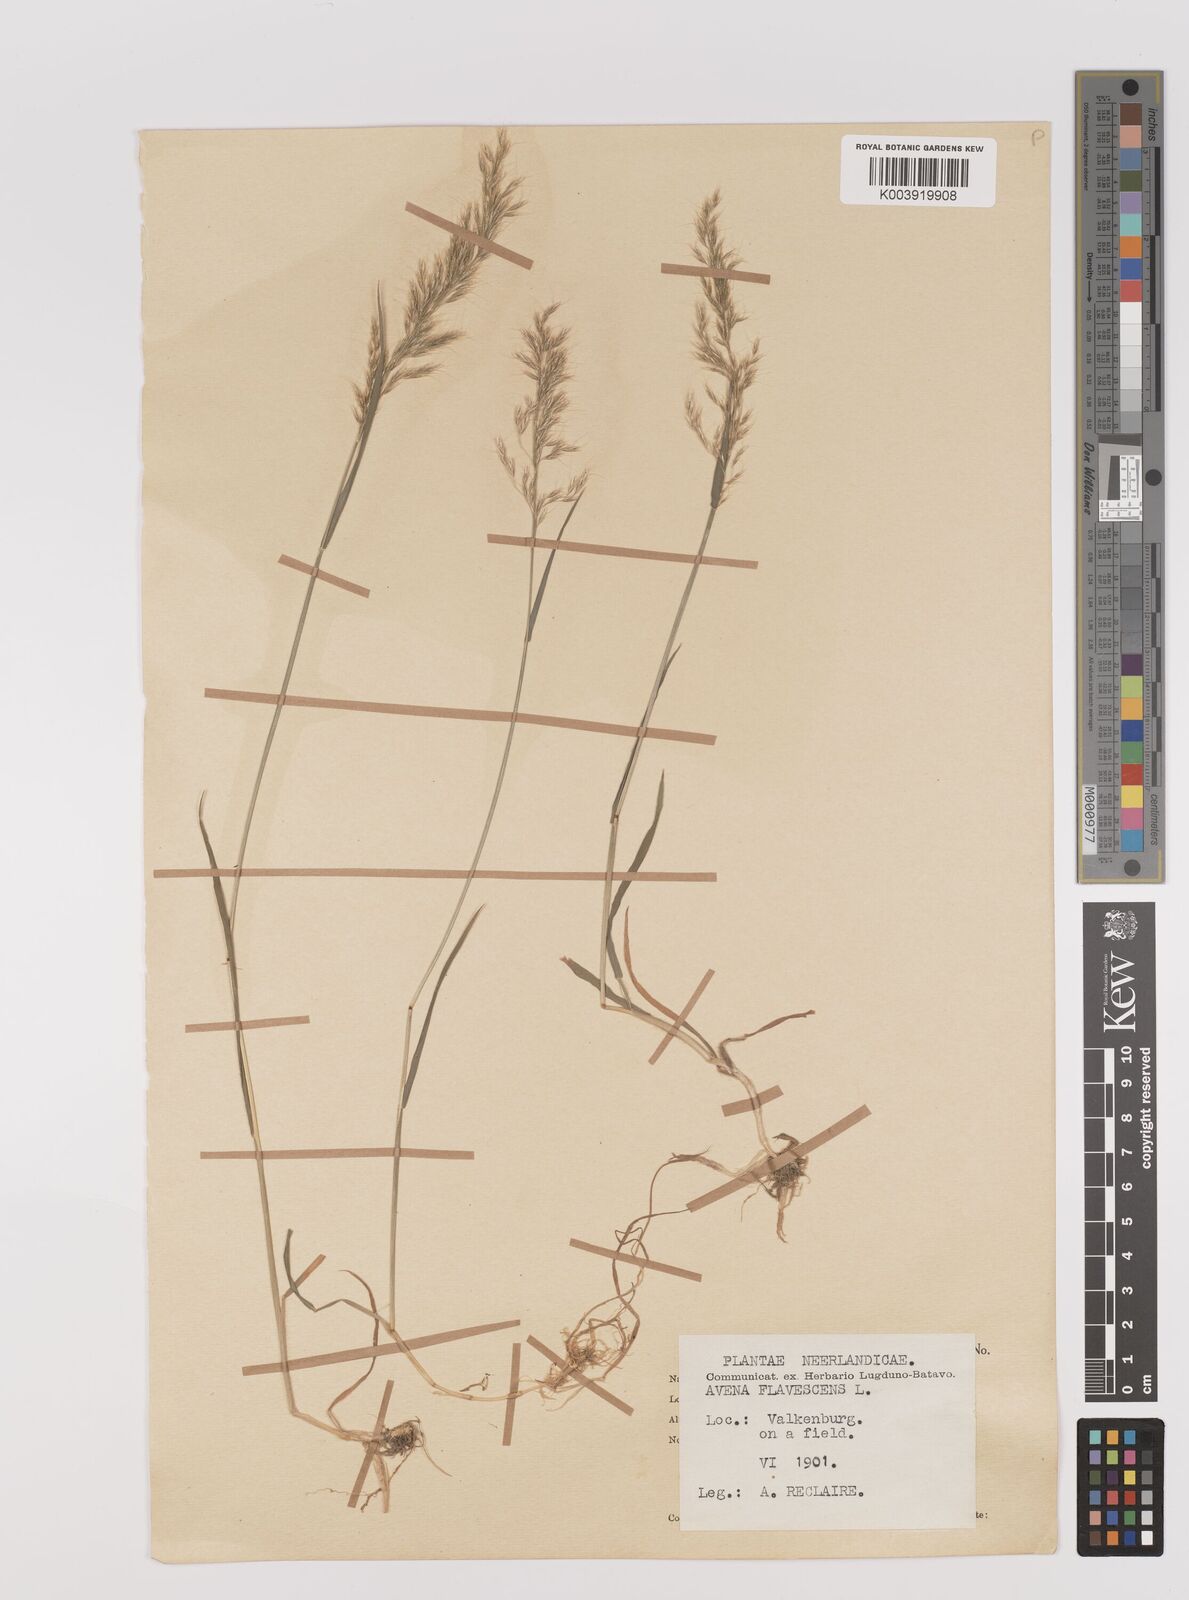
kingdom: Plantae
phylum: Tracheophyta
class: Liliopsida
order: Poales
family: Poaceae
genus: Trisetum
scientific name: Trisetum flavescens
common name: Yellow oat-grass
